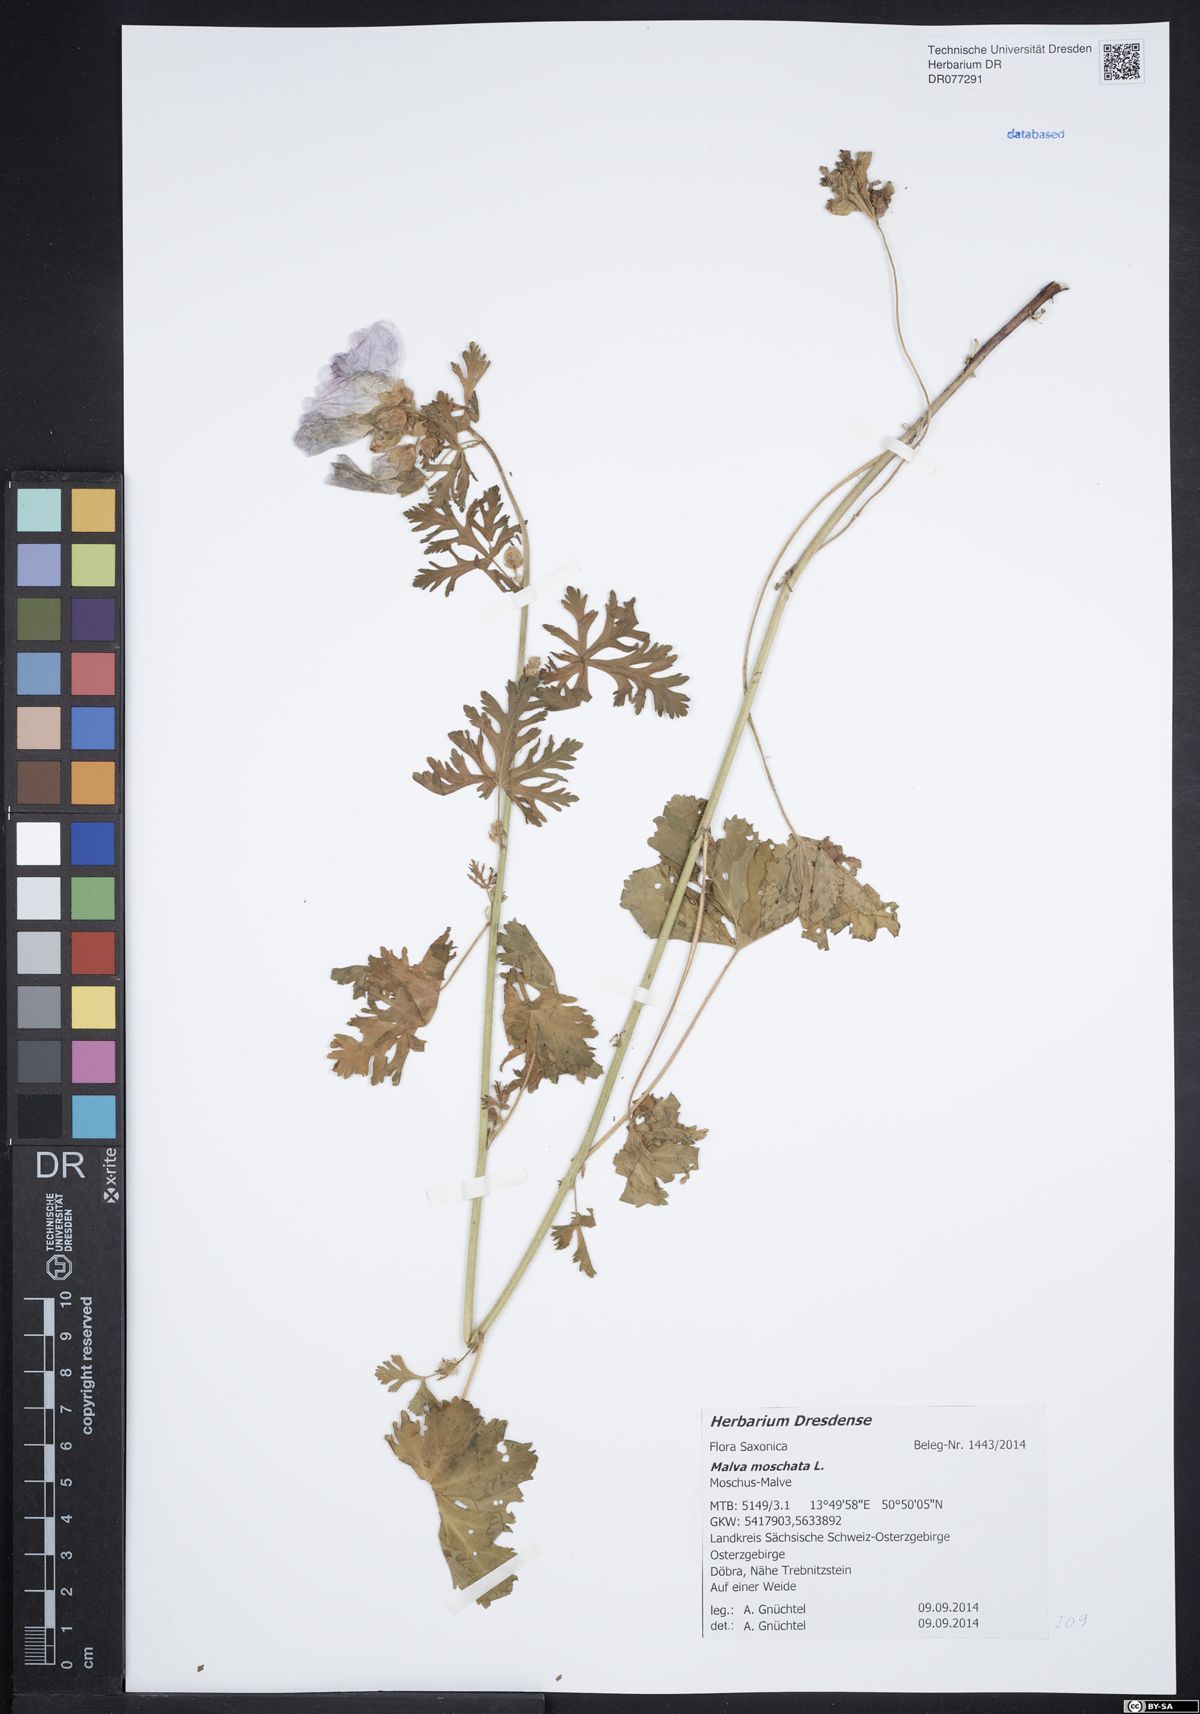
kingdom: Plantae
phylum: Tracheophyta
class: Magnoliopsida
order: Malvales
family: Malvaceae
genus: Malva
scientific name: Malva moschata
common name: Musk mallow
